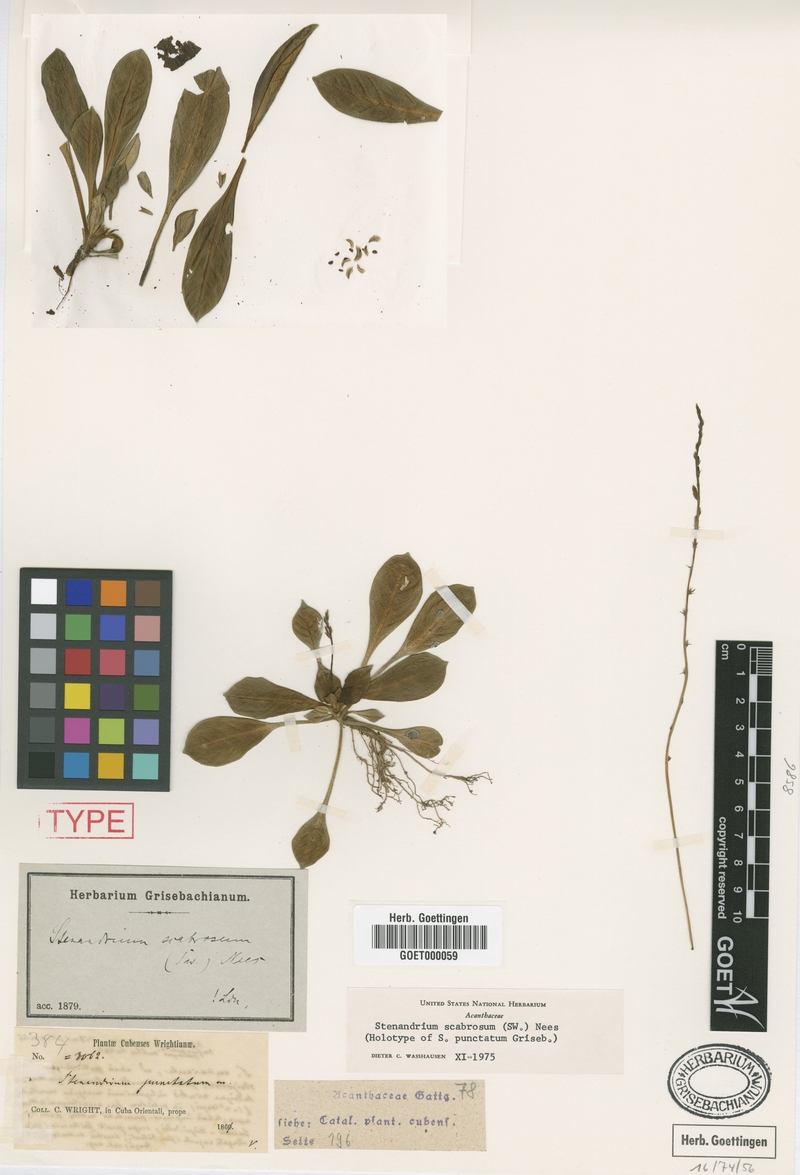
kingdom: Plantae
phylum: Tracheophyta
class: Magnoliopsida
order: Lamiales
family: Acanthaceae
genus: Stenandrium
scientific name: Stenandrium scabrosum
